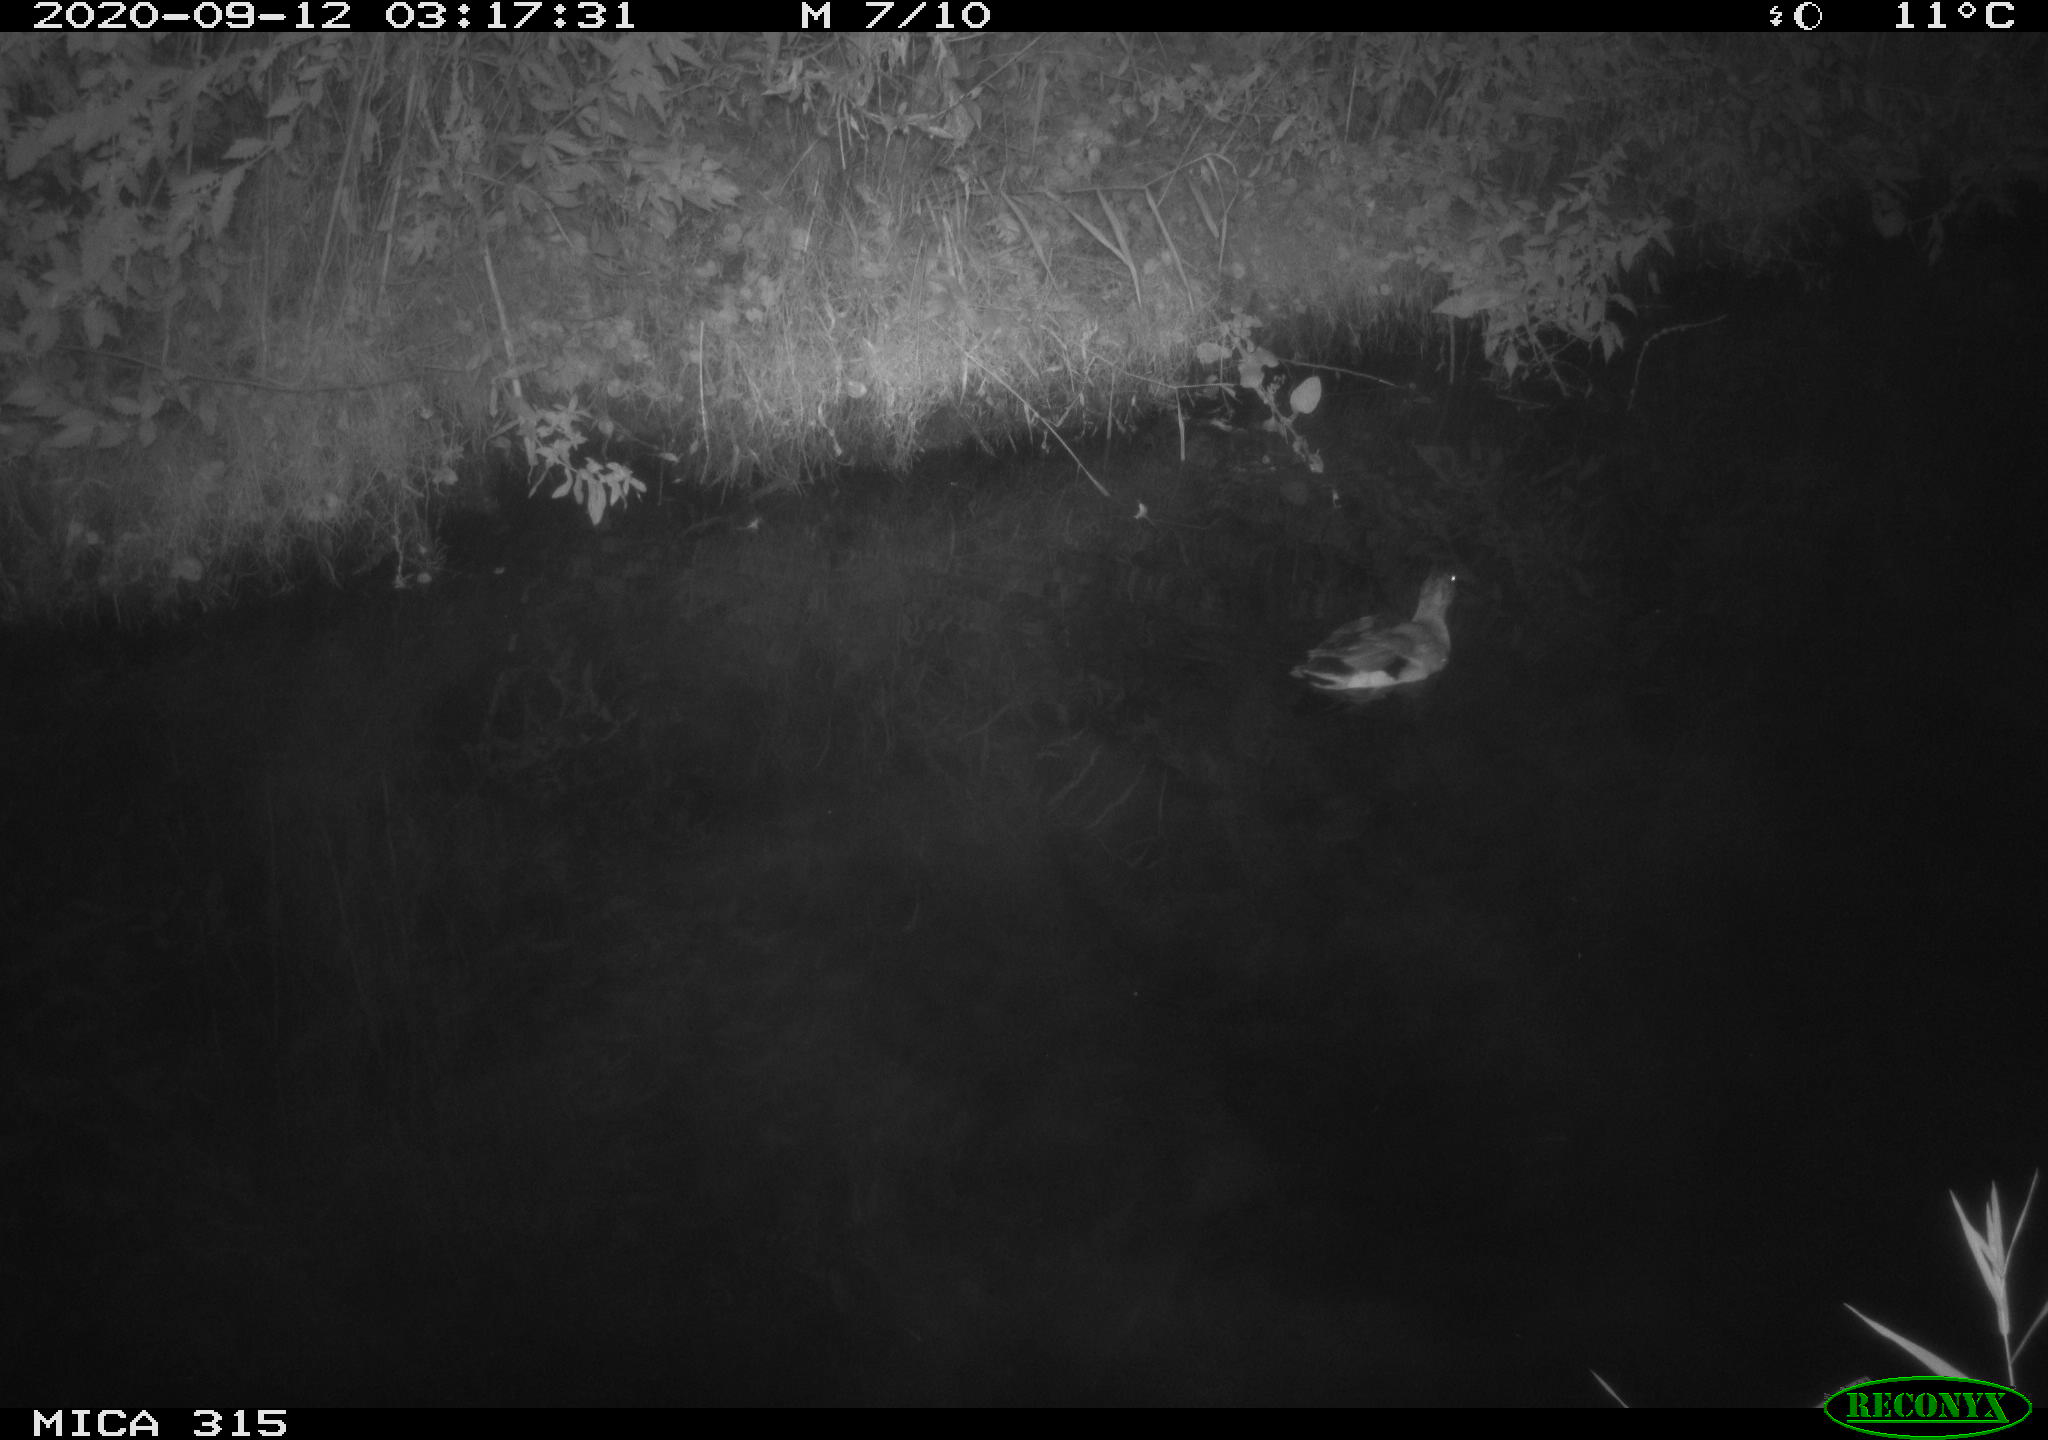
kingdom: Animalia
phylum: Chordata
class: Aves
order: Anseriformes
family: Anatidae
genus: Anas
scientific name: Anas platyrhynchos
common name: Mallard
